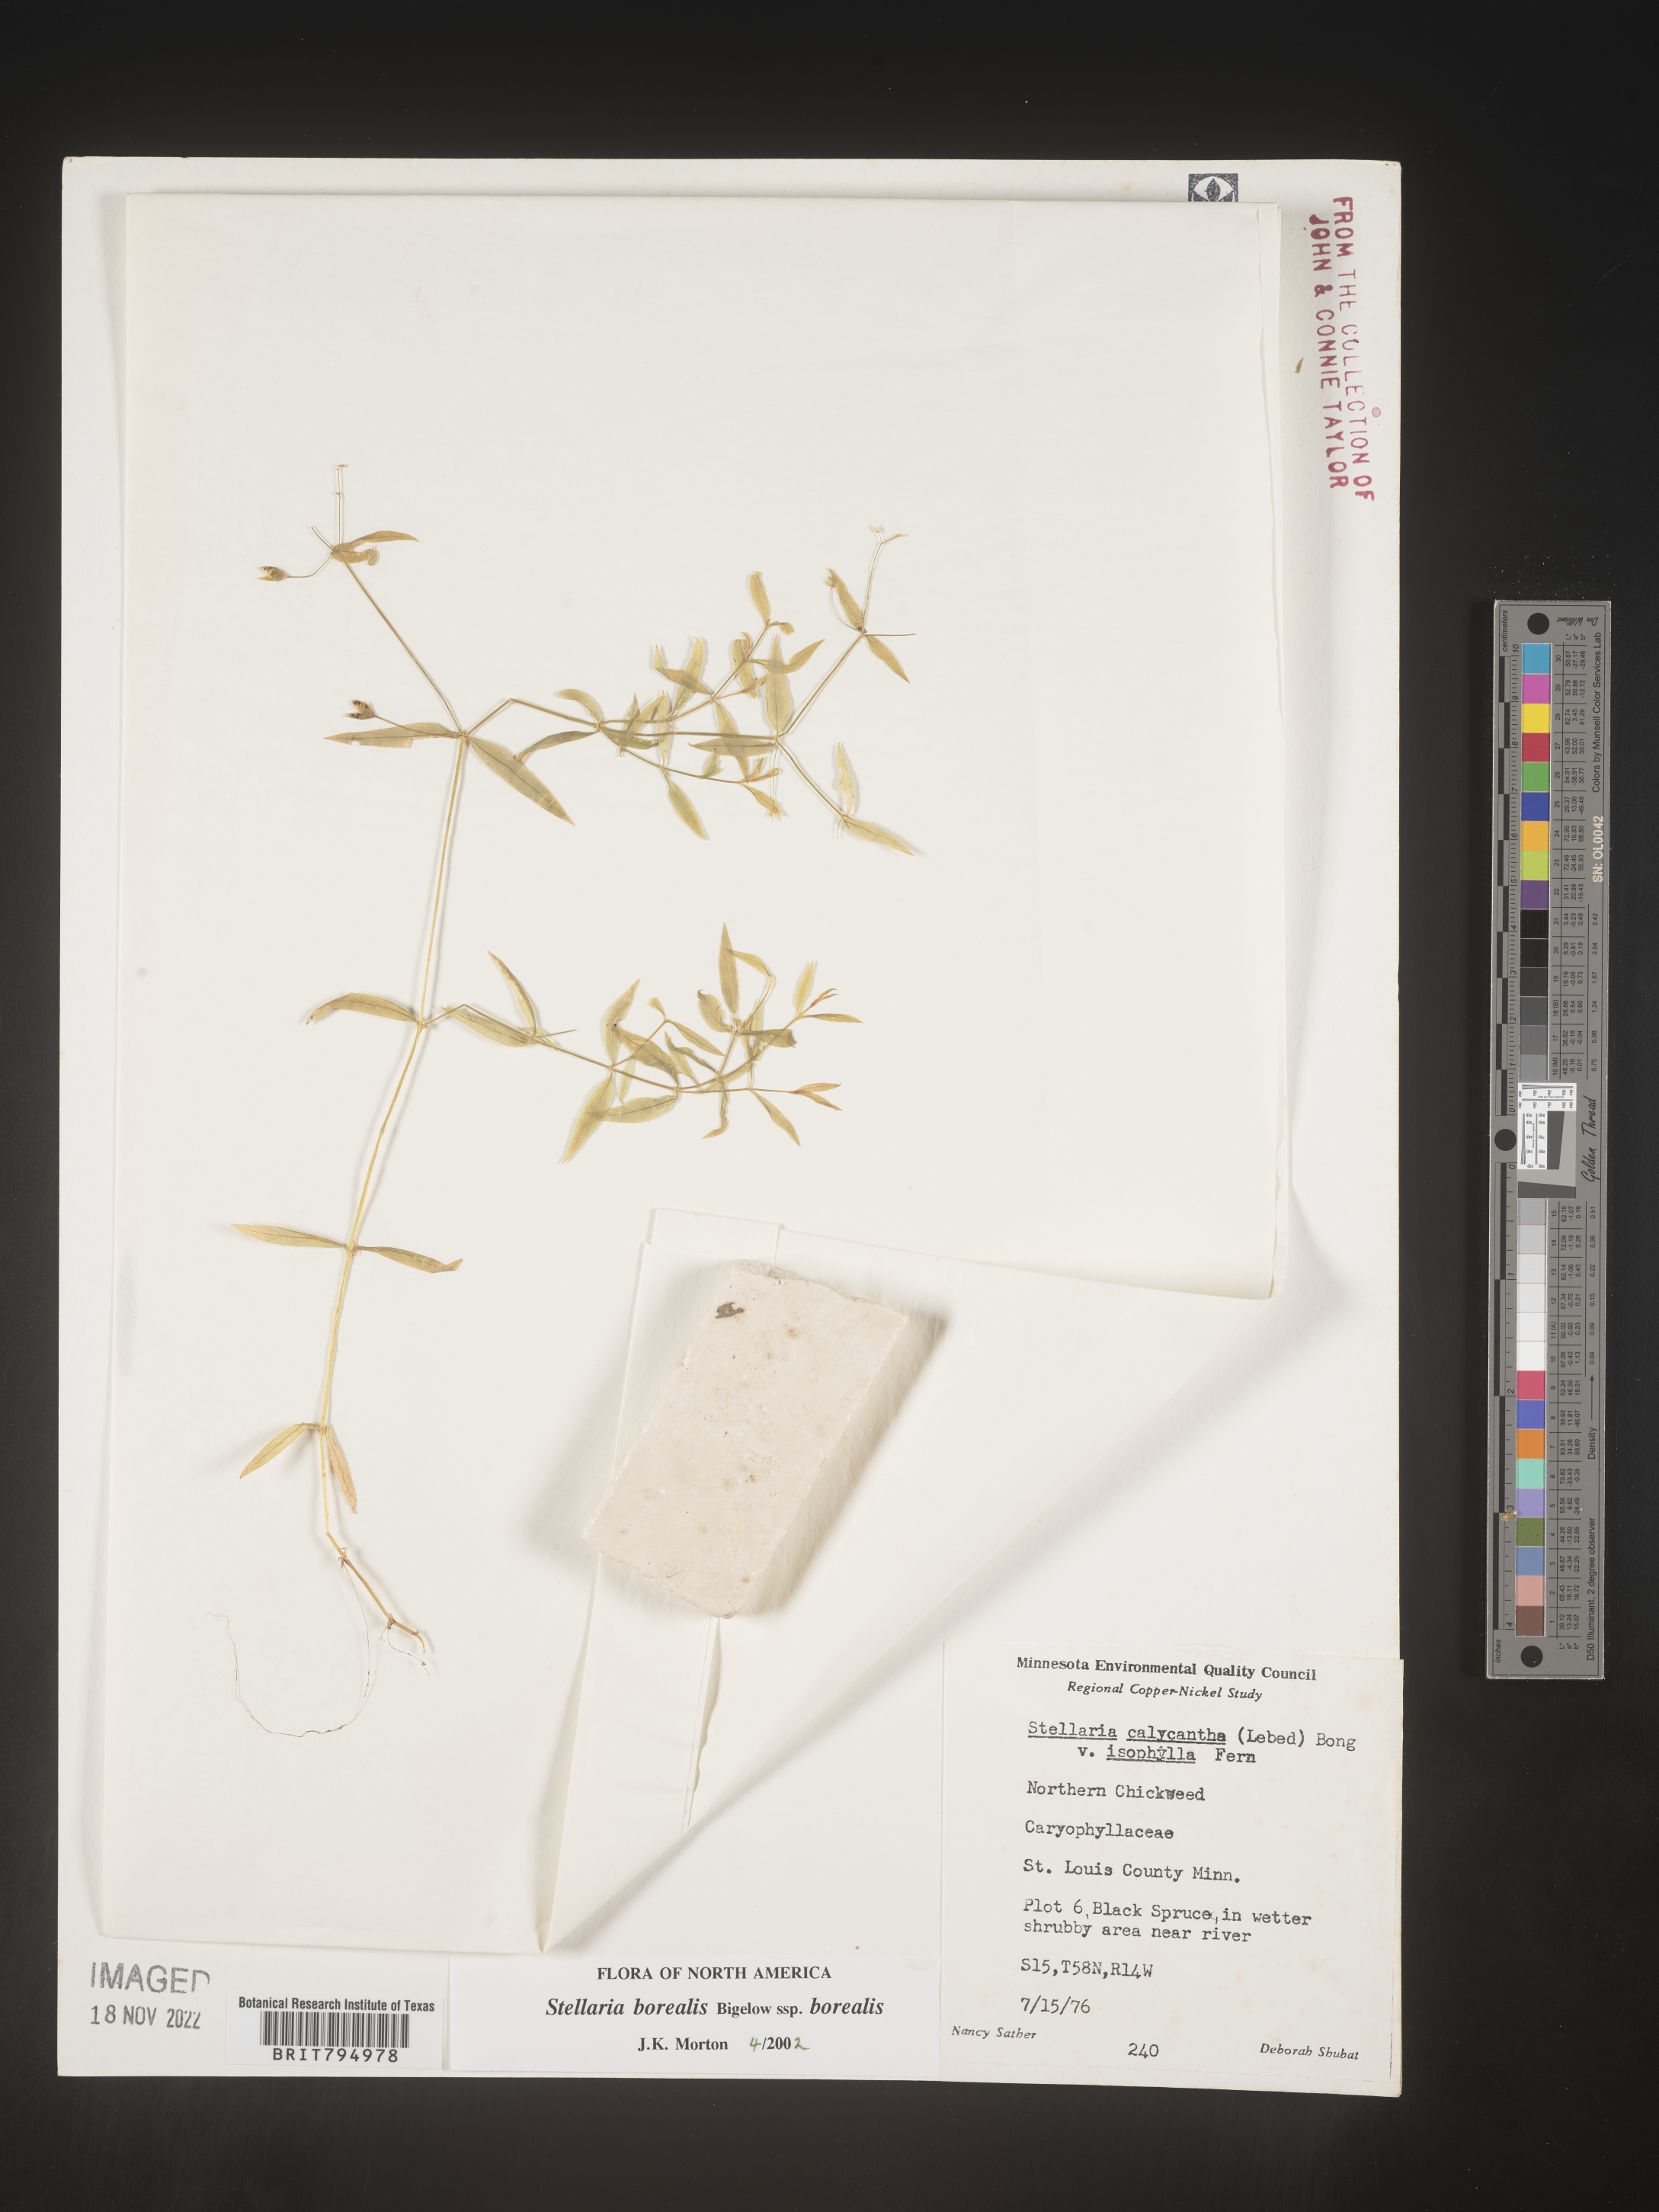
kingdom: Plantae
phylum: Tracheophyta
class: Magnoliopsida
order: Caryophyllales
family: Caryophyllaceae
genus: Stellaria
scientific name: Stellaria borealis
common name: Boreal starwort
